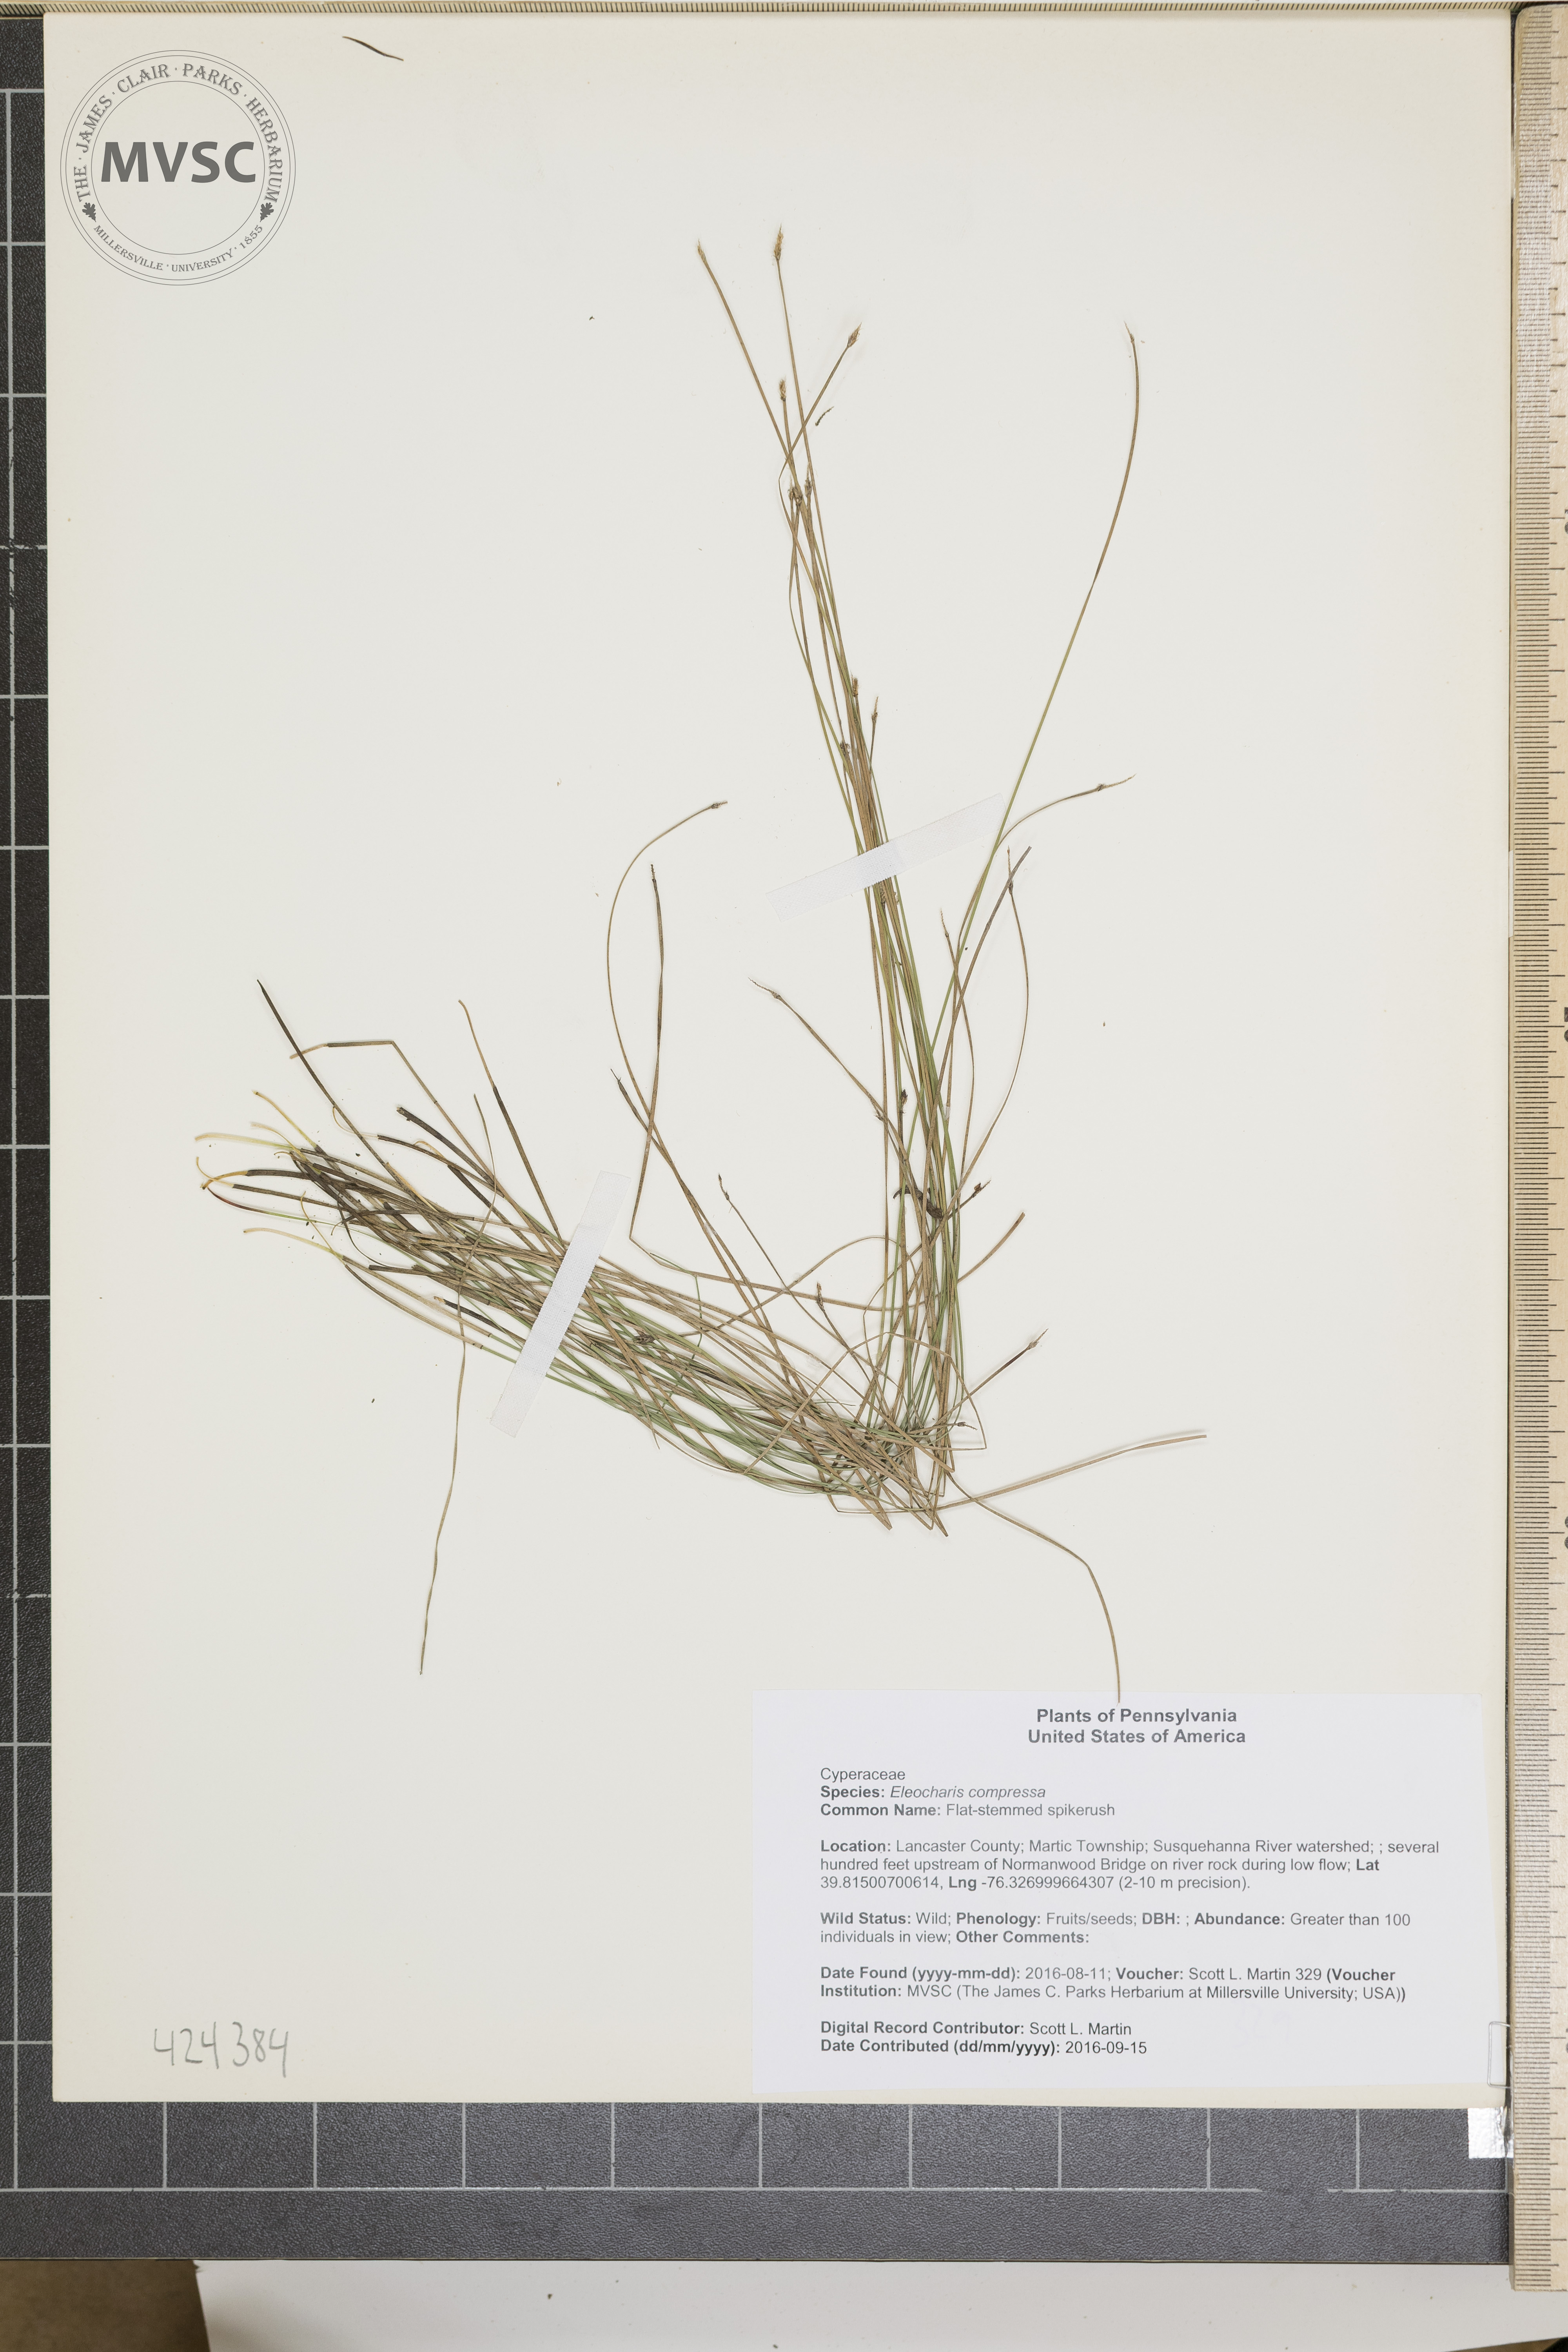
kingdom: Plantae
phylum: Tracheophyta
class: Liliopsida
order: Poales
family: Cyperaceae
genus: Eleocharis
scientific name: Eleocharis compressa
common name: Flat-stemmed spikerush
